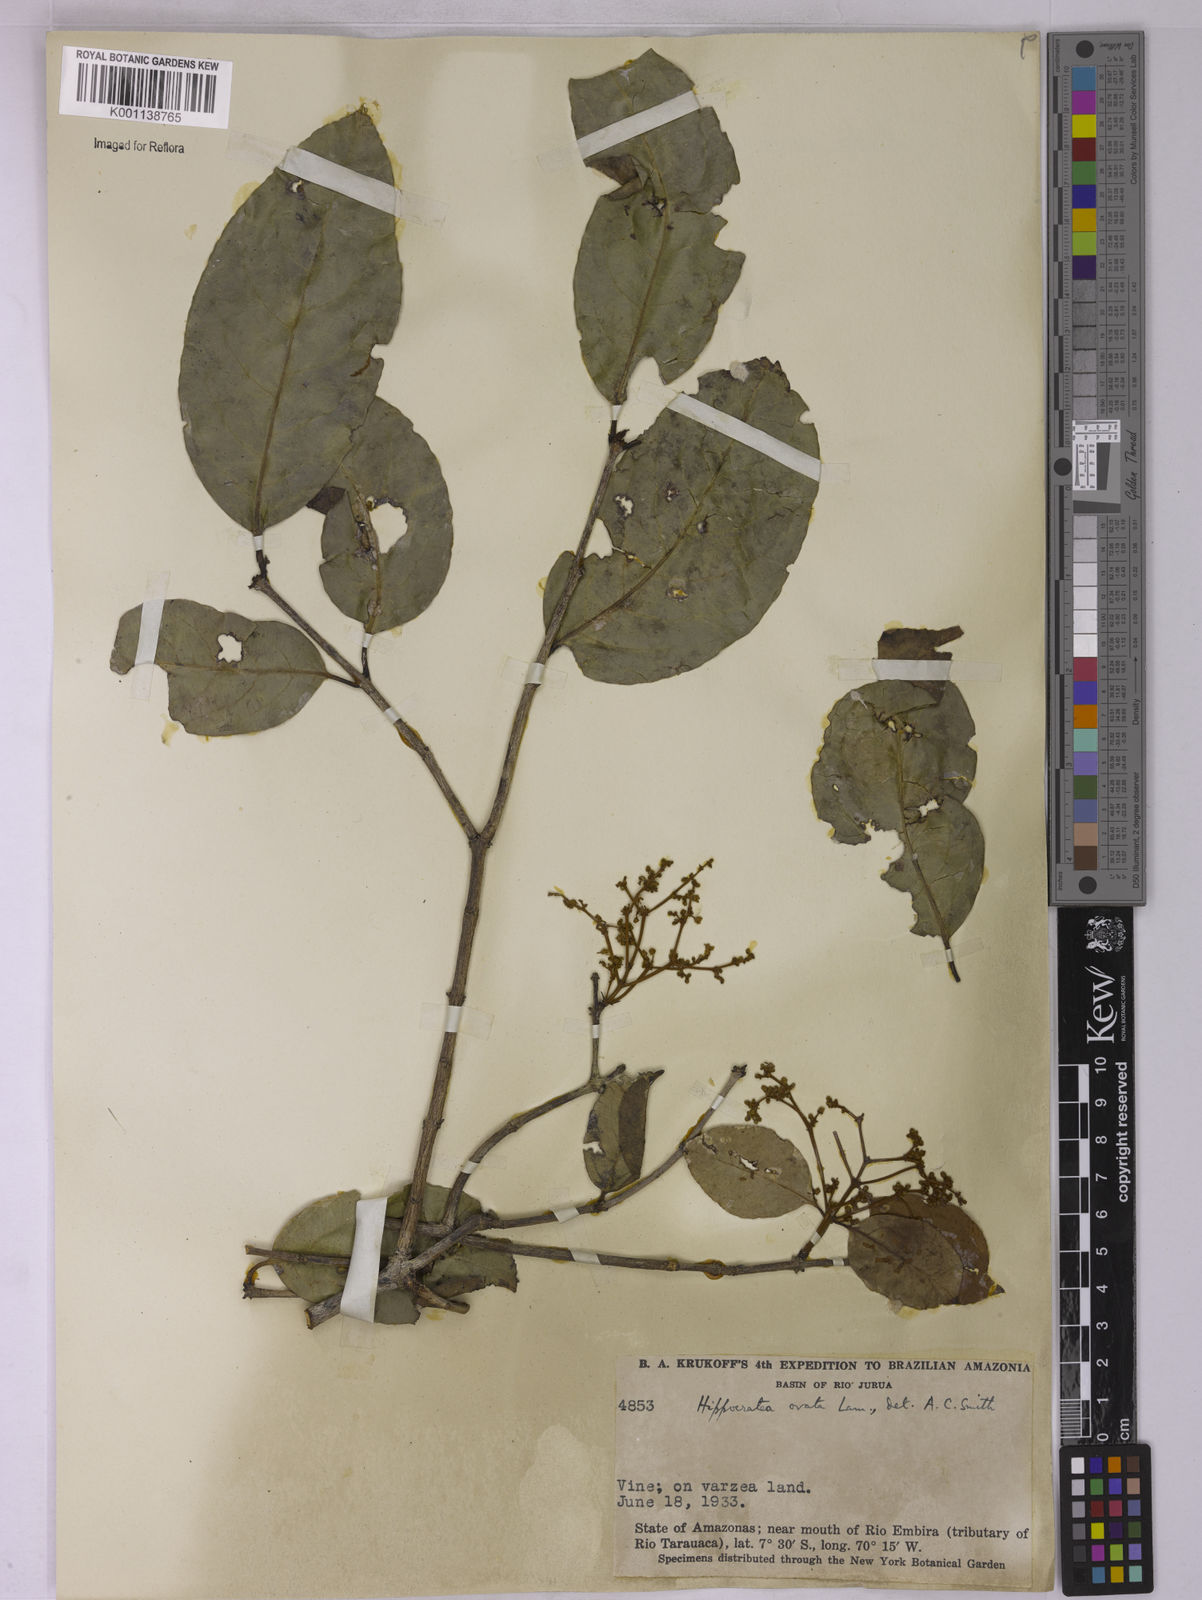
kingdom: Plantae
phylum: Tracheophyta
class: Magnoliopsida
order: Celastrales
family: Celastraceae
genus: Hippocratea
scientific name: Hippocratea volubilis
